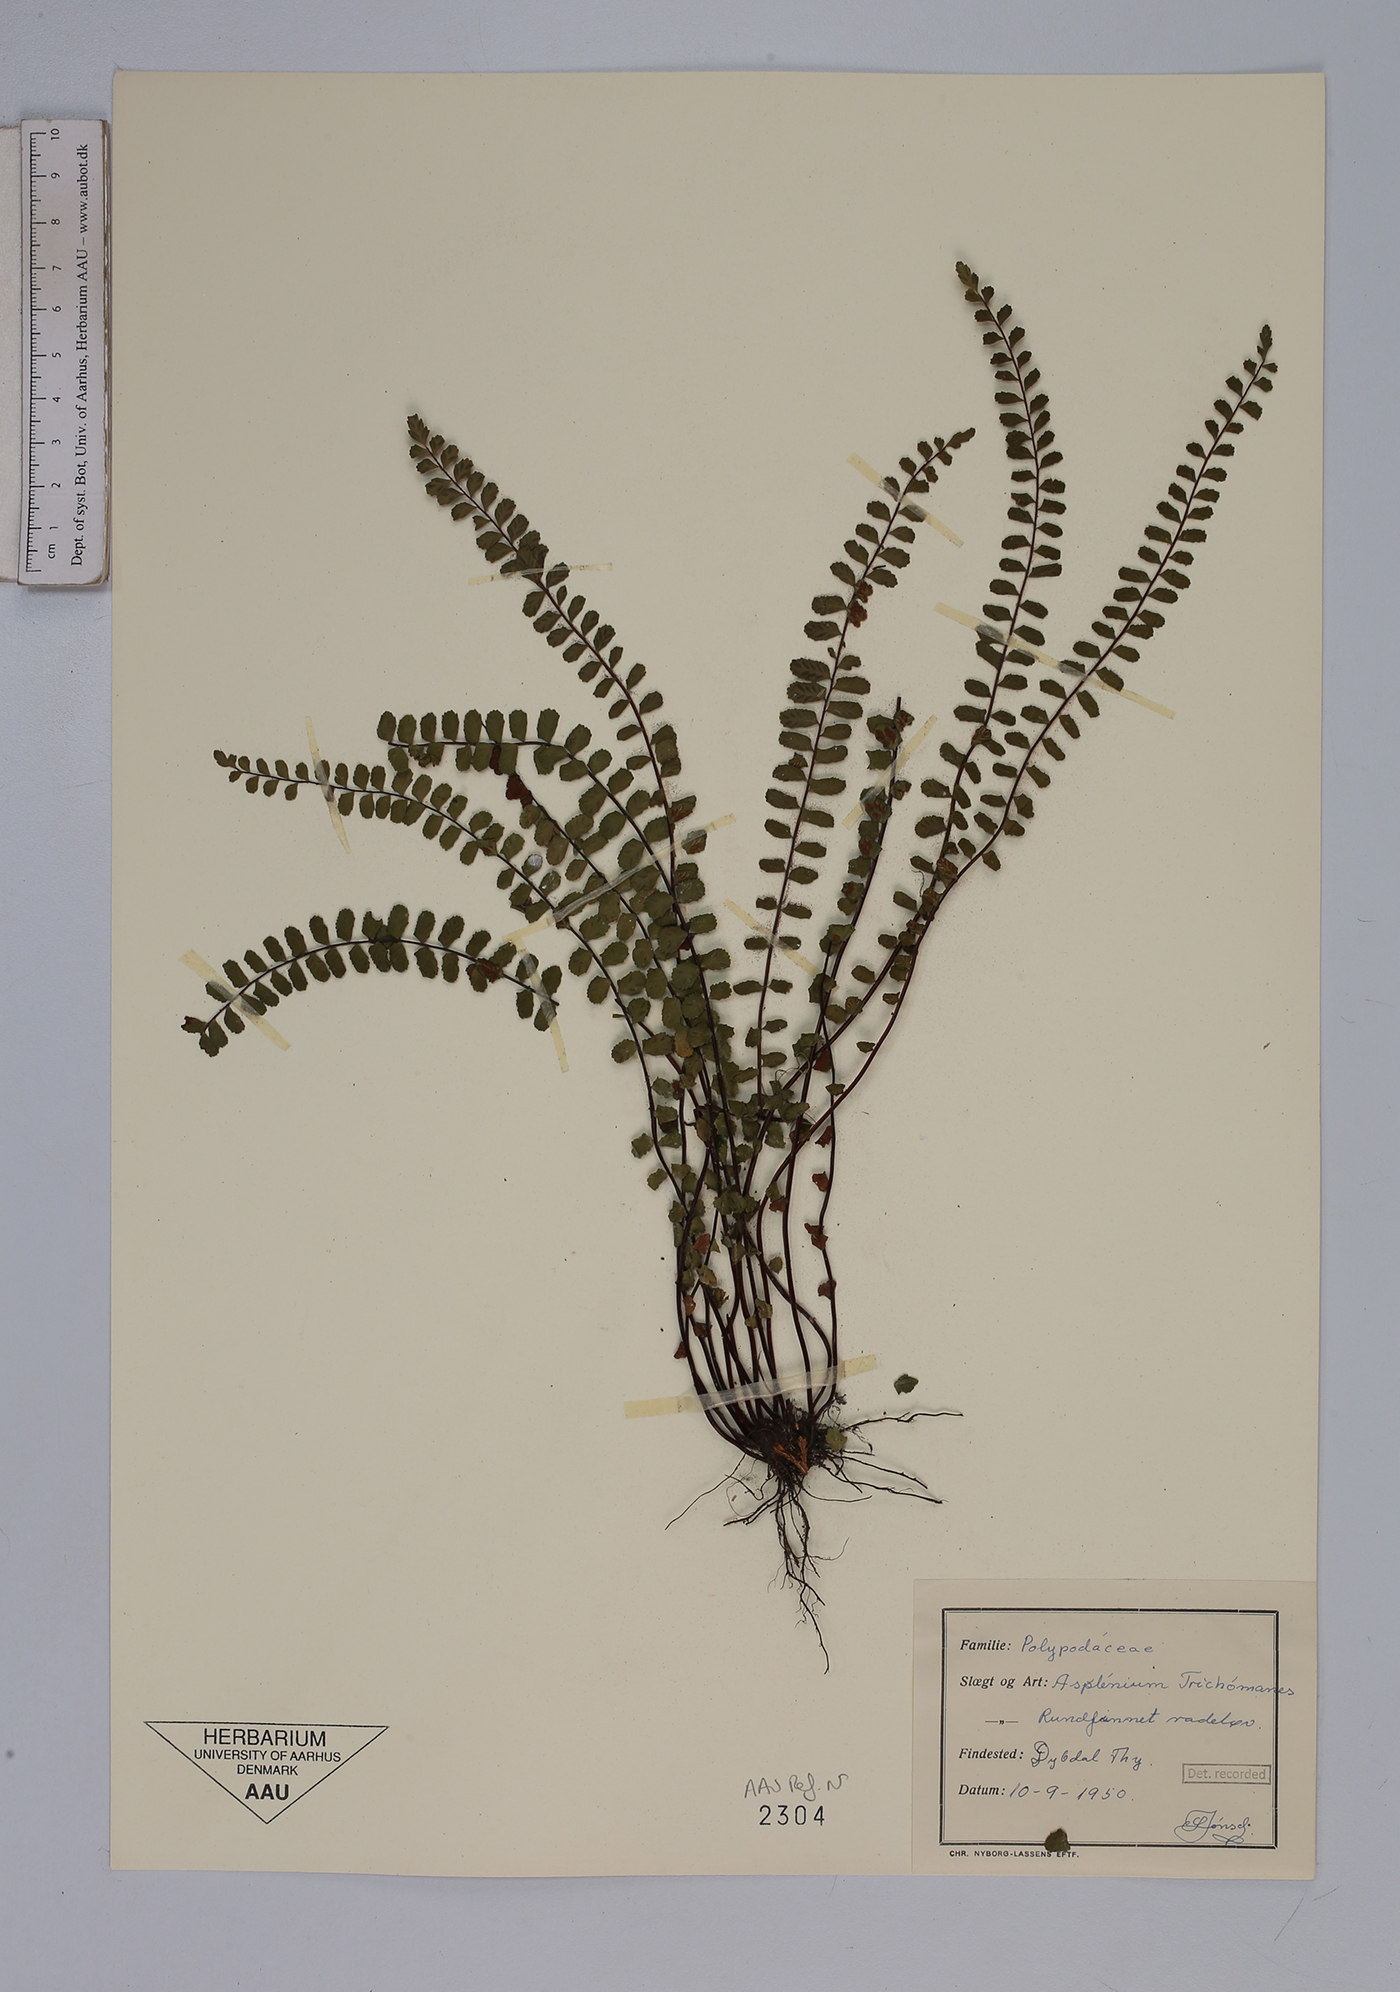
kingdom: Plantae
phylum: Tracheophyta
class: Polypodiopsida
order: Polypodiales
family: Aspleniaceae
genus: Asplenium
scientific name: Asplenium trichomanes
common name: Maidenhair spleenwort
